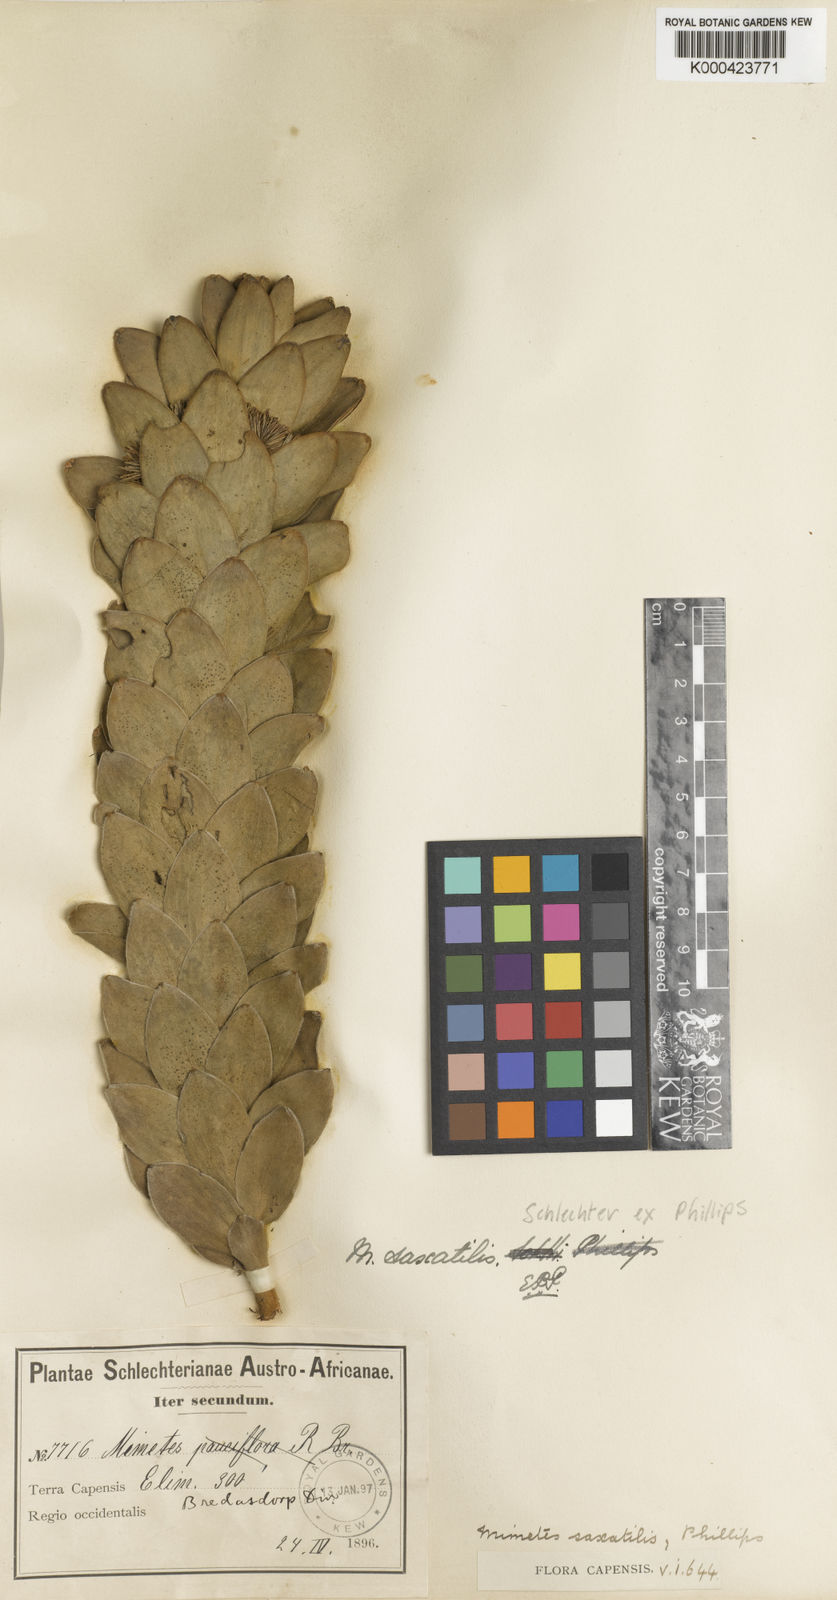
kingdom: Plantae
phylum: Tracheophyta
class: Magnoliopsida
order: Proteales
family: Proteaceae
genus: Mimetes
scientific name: Mimetes saxatilis
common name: Limestone pagoda
